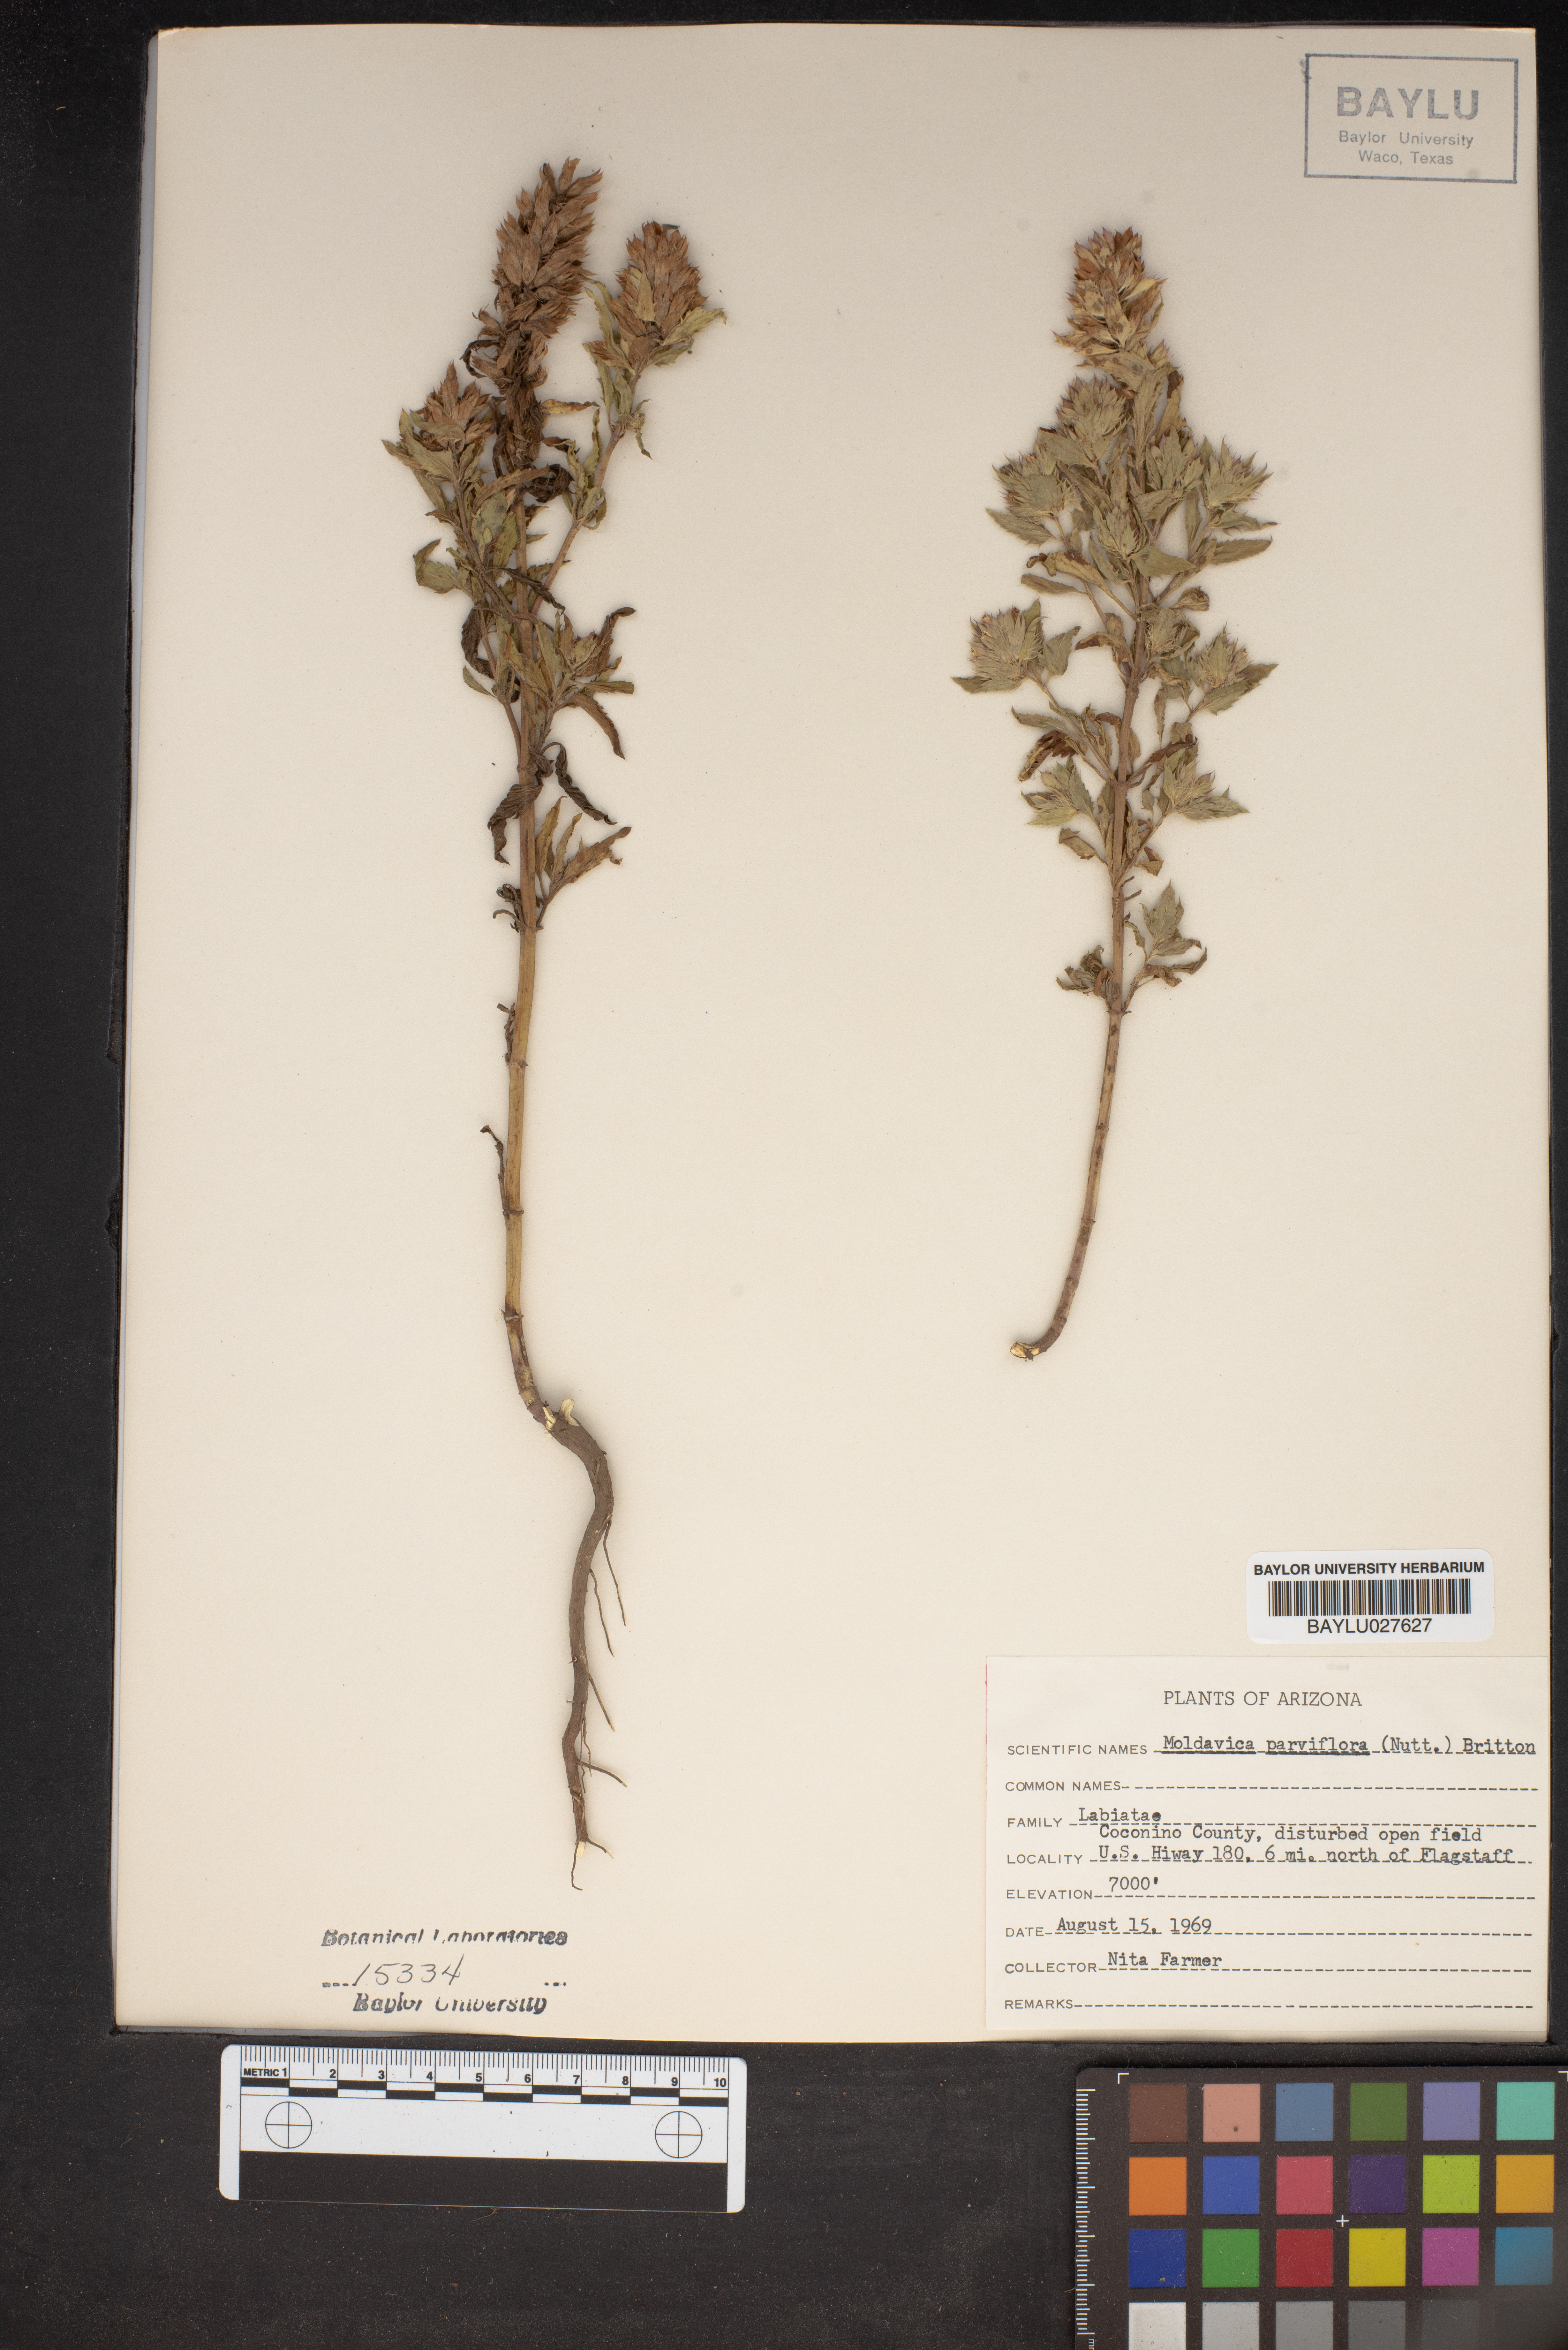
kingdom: Plantae
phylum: Tracheophyta
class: Magnoliopsida
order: Lamiales
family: Lamiaceae
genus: Physostegia
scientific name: Physostegia parviflora
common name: American dragonhead
